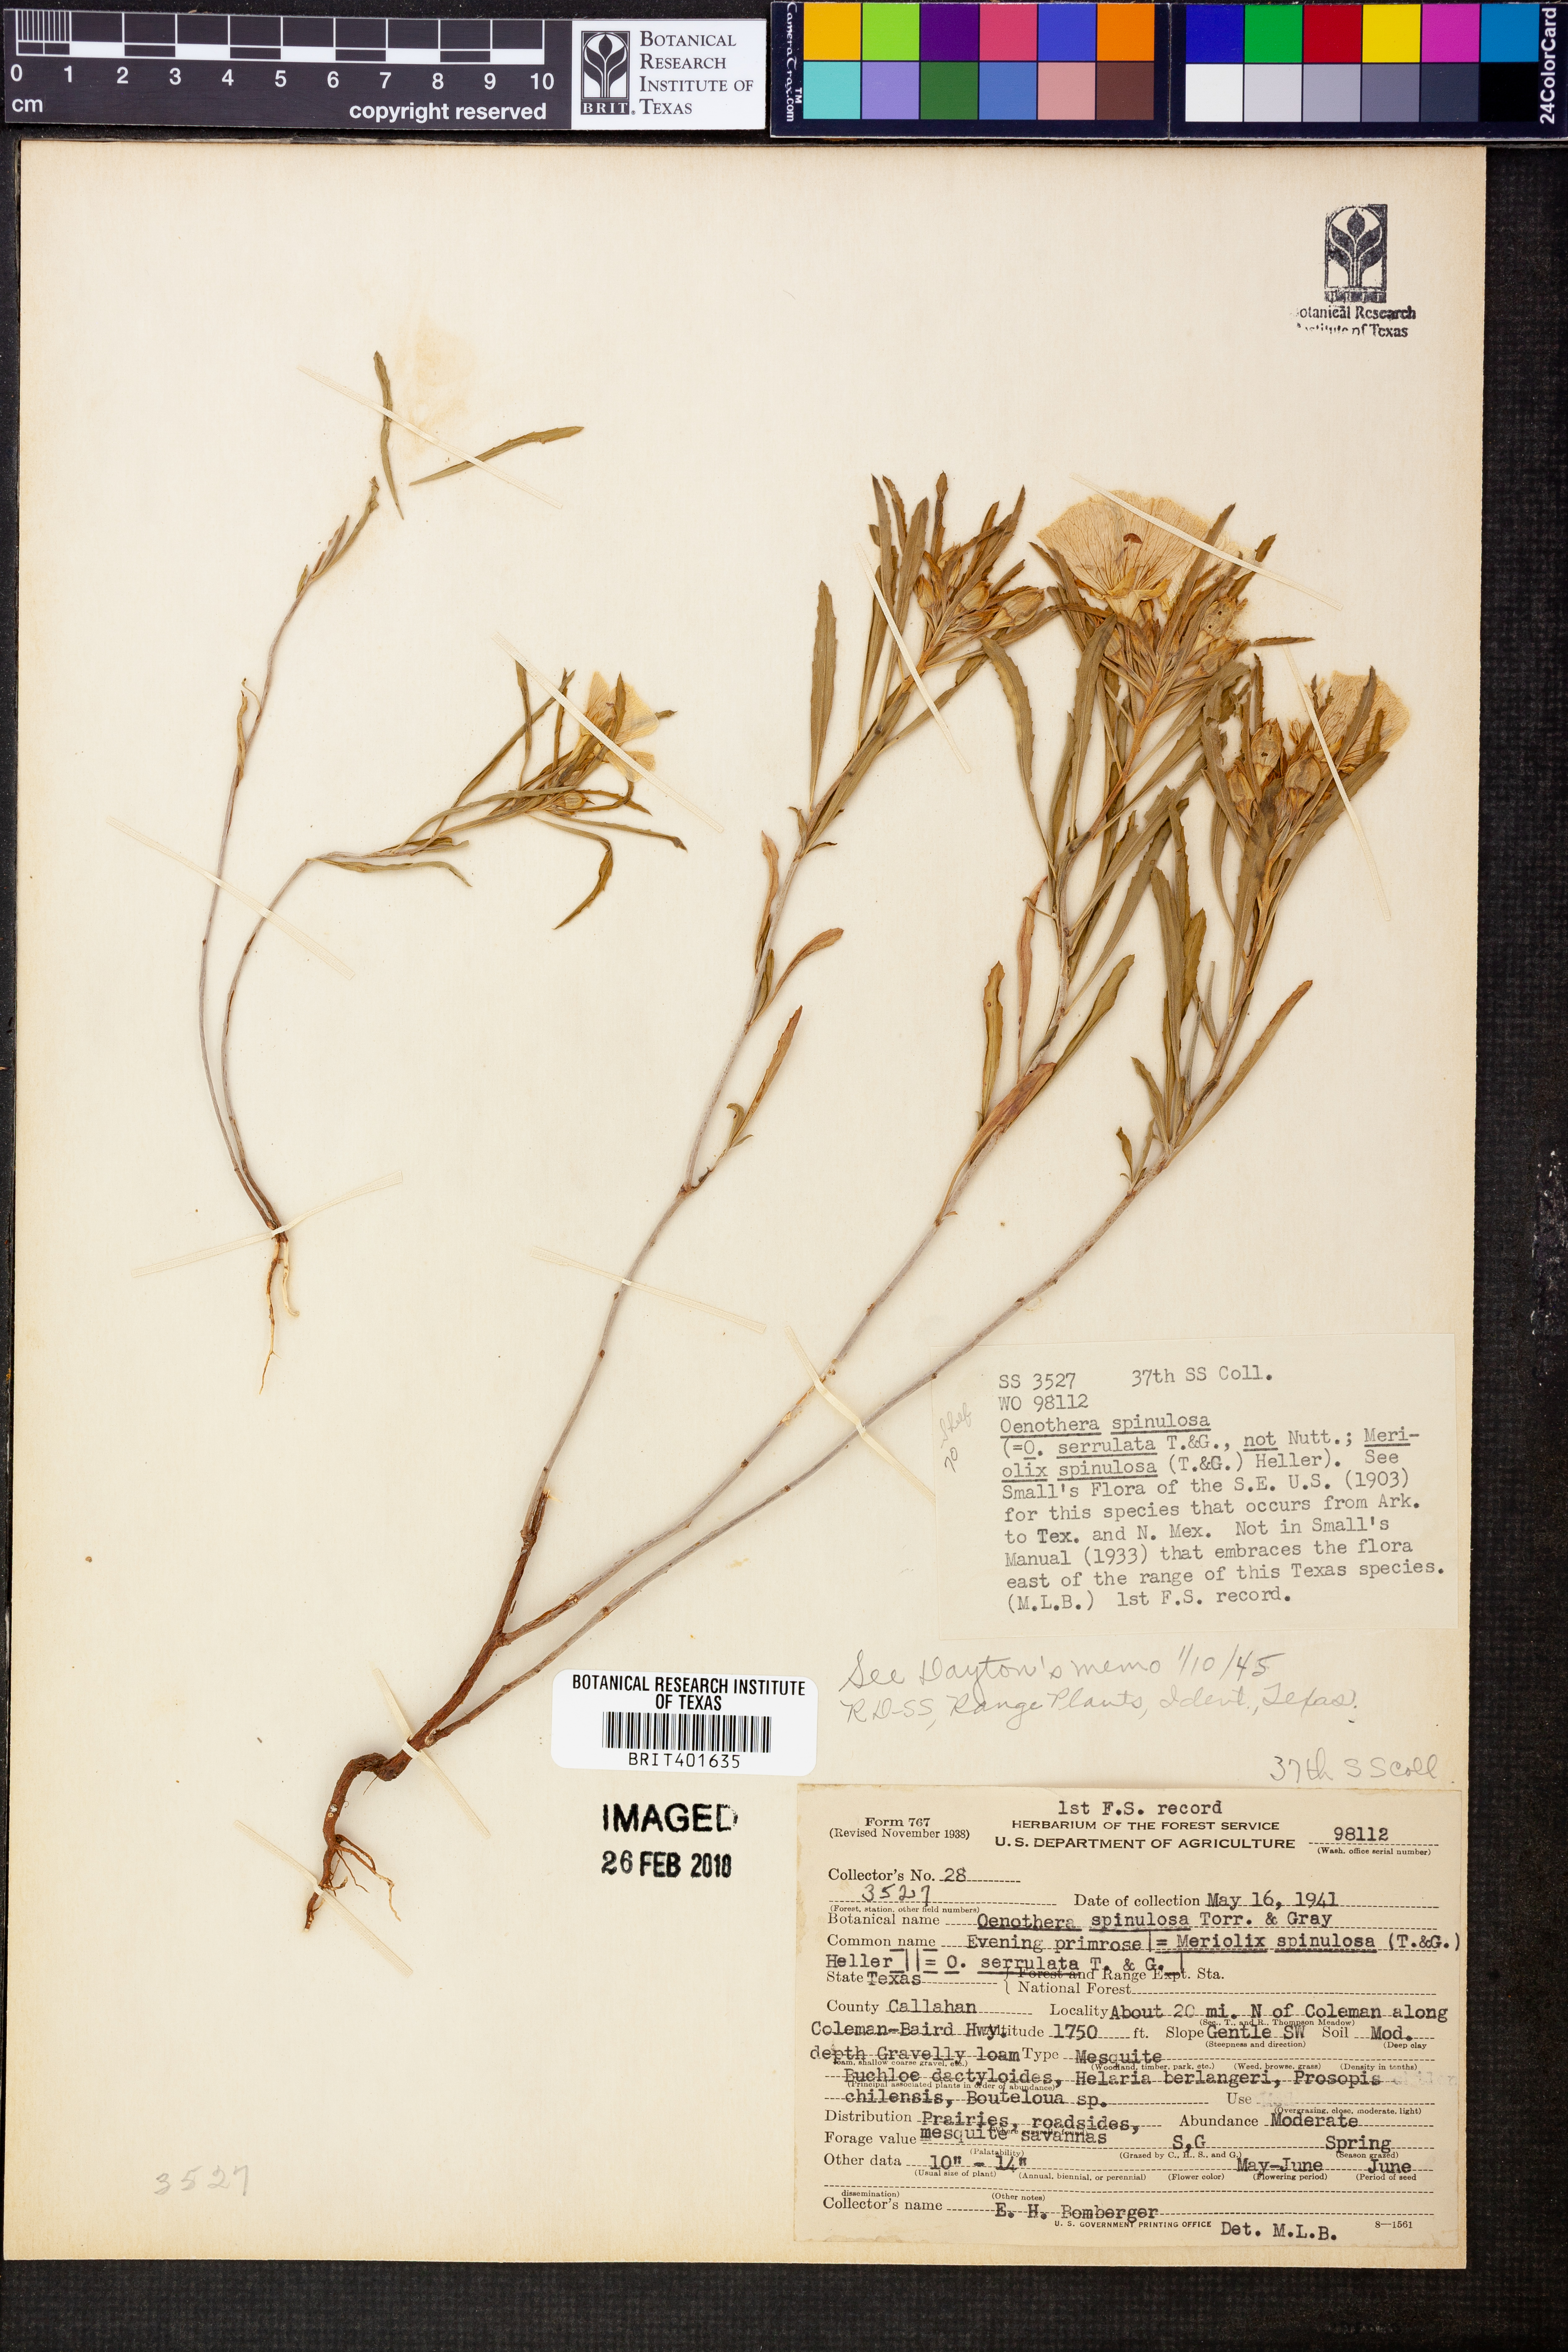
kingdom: Plantae
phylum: Tracheophyta
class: Magnoliopsida
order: Myrtales
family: Onagraceae
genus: Oenothera
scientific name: Oenothera serrulata
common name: Half-shrub calylophus
